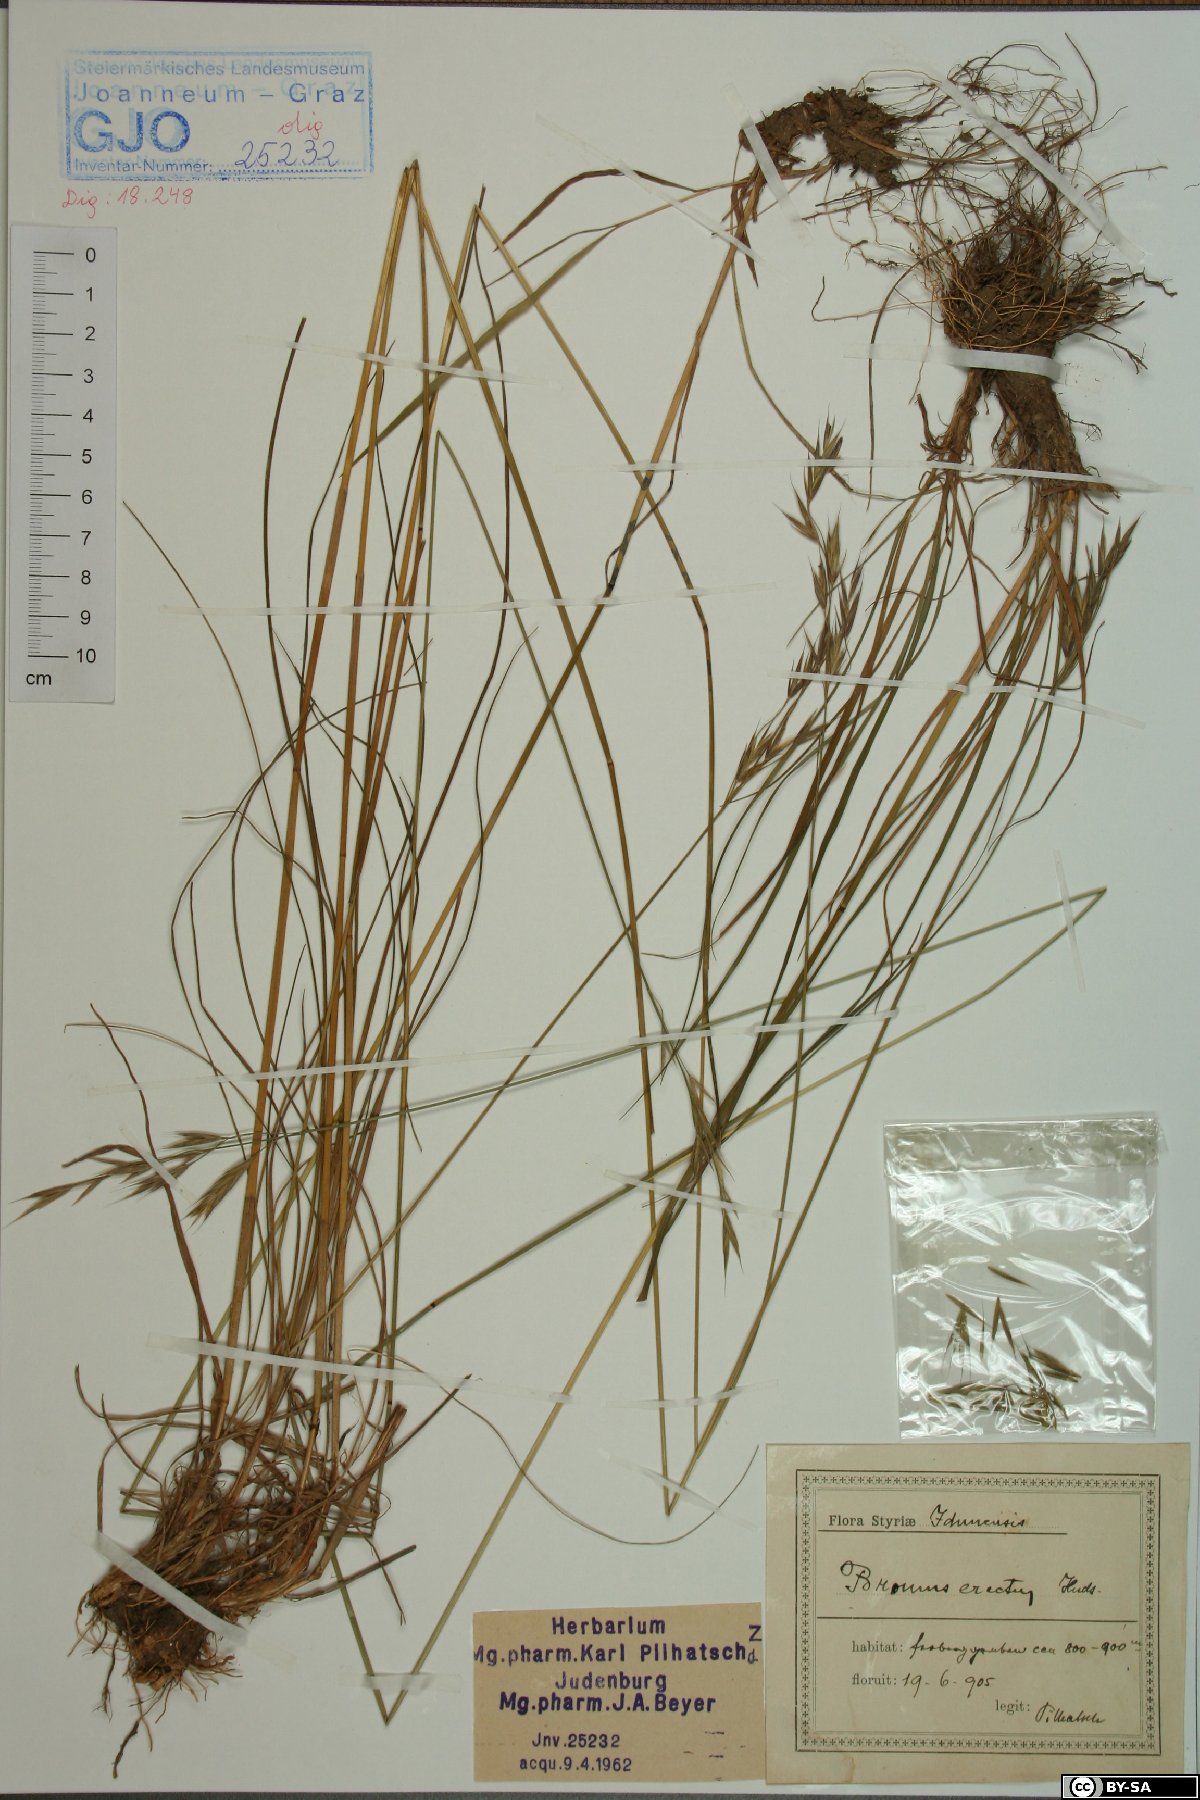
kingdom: Plantae
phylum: Tracheophyta
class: Liliopsida
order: Poales
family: Poaceae
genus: Bromus
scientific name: Bromus erectus
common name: Erect brome
